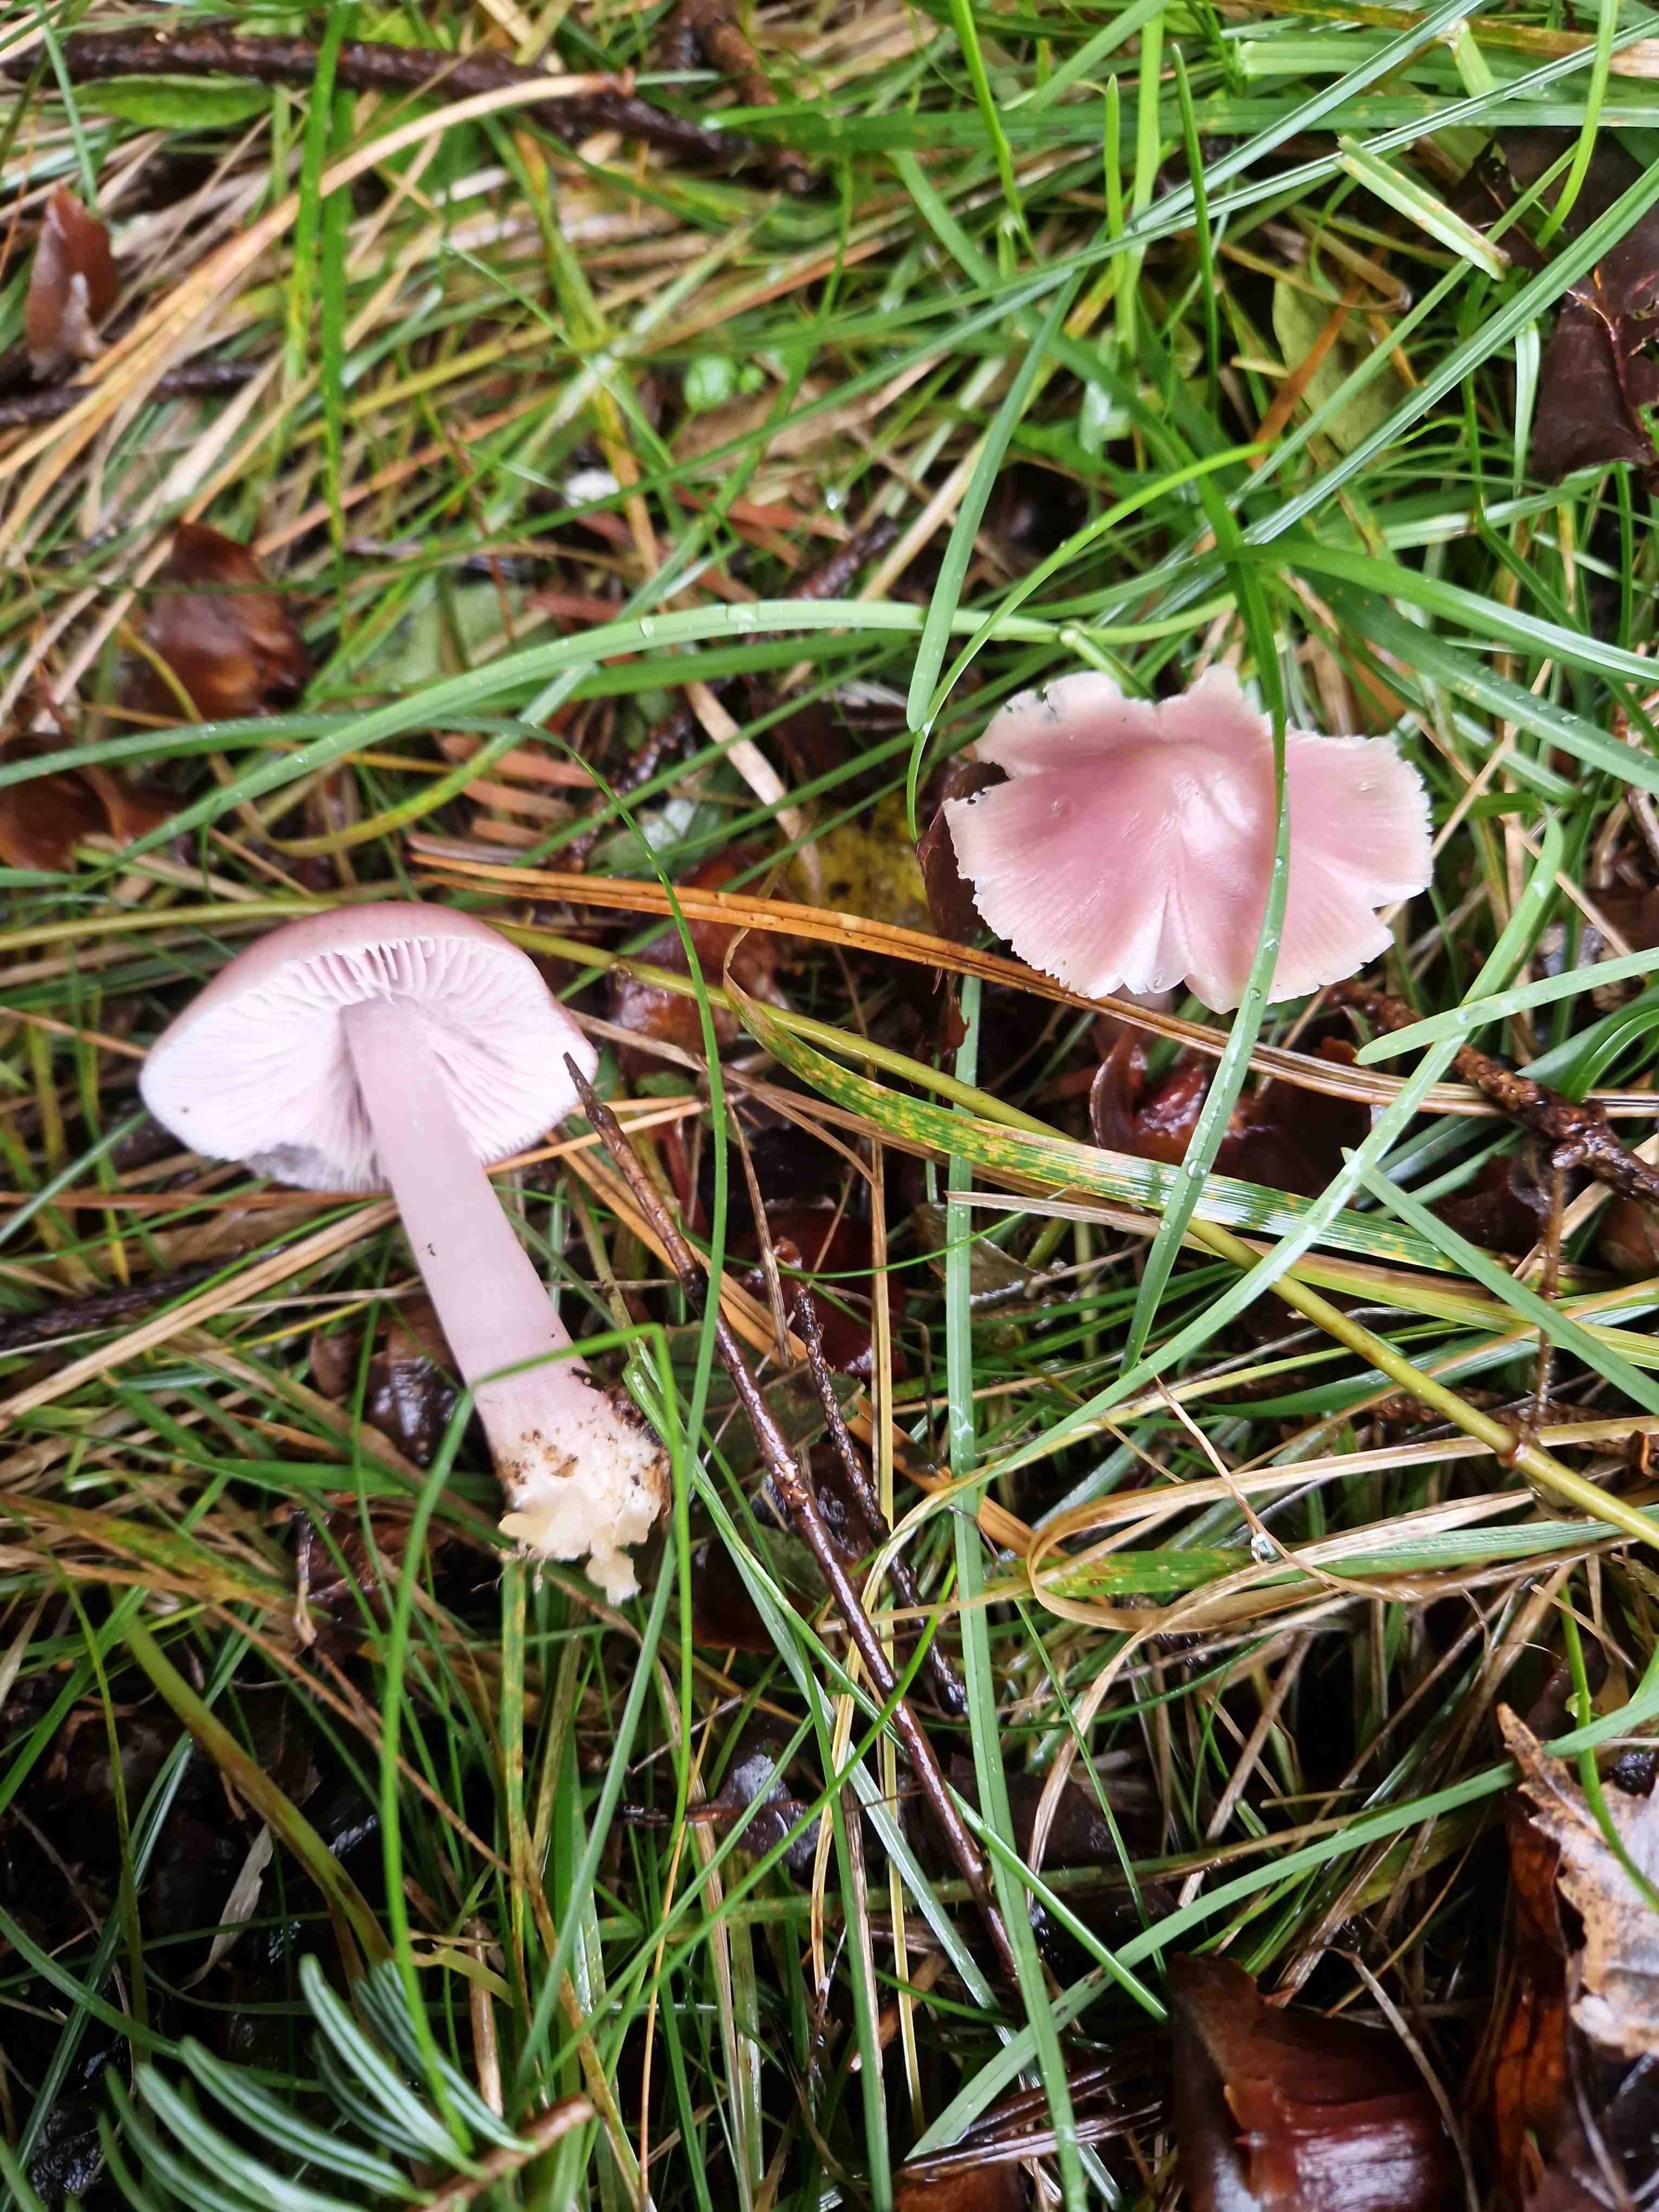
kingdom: Fungi
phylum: Basidiomycota
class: Agaricomycetes
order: Agaricales
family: Mycenaceae
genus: Mycena
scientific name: Mycena rosea
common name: rosa huesvamp
